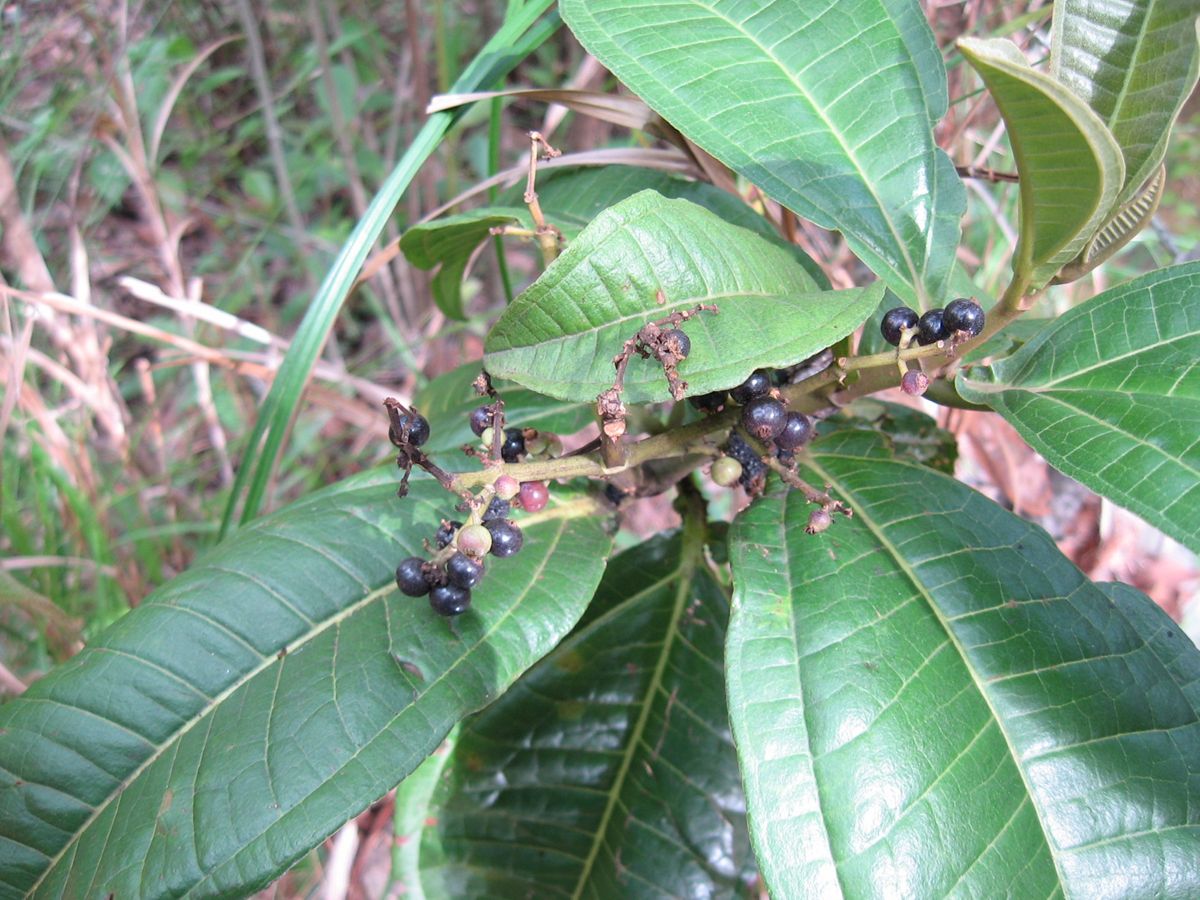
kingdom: Plantae
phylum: Tracheophyta
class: Magnoliopsida
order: Myrtales
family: Melastomataceae
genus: Miconia
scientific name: Miconia chamissois
